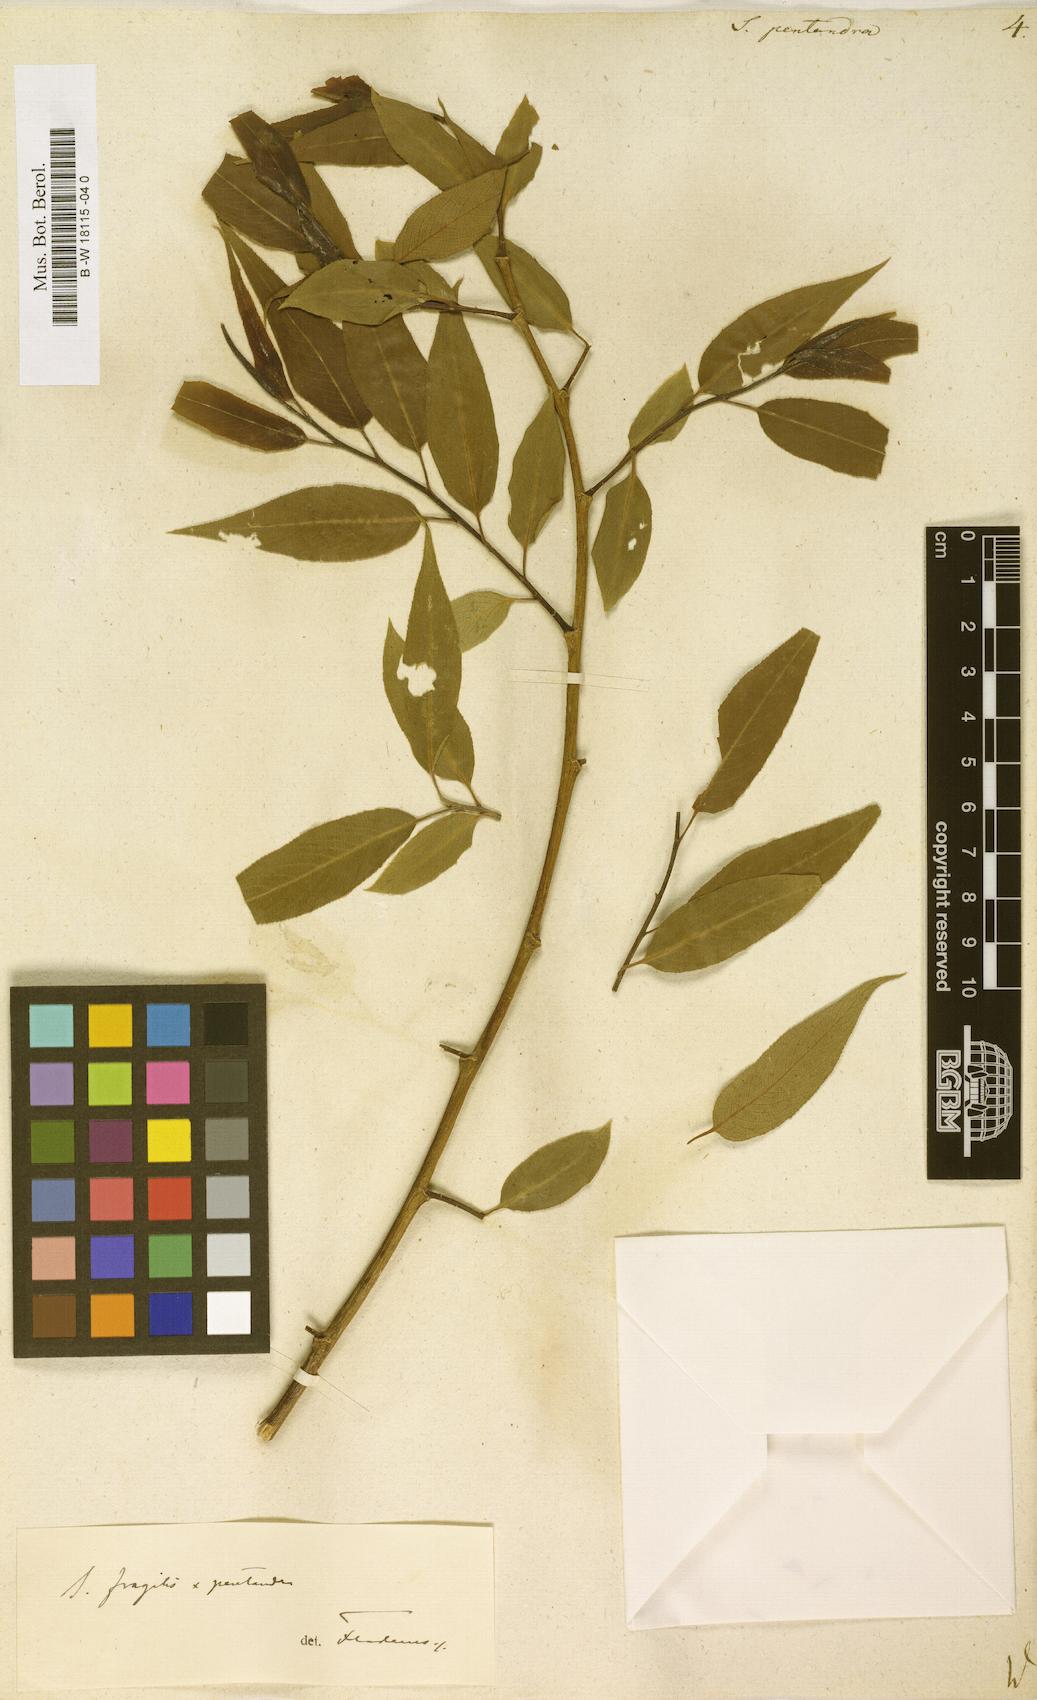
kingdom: Plantae
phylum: Tracheophyta
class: Magnoliopsida
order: Malpighiales
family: Salicaceae
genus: Salix
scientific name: Salix pentandra
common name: Bay willow
